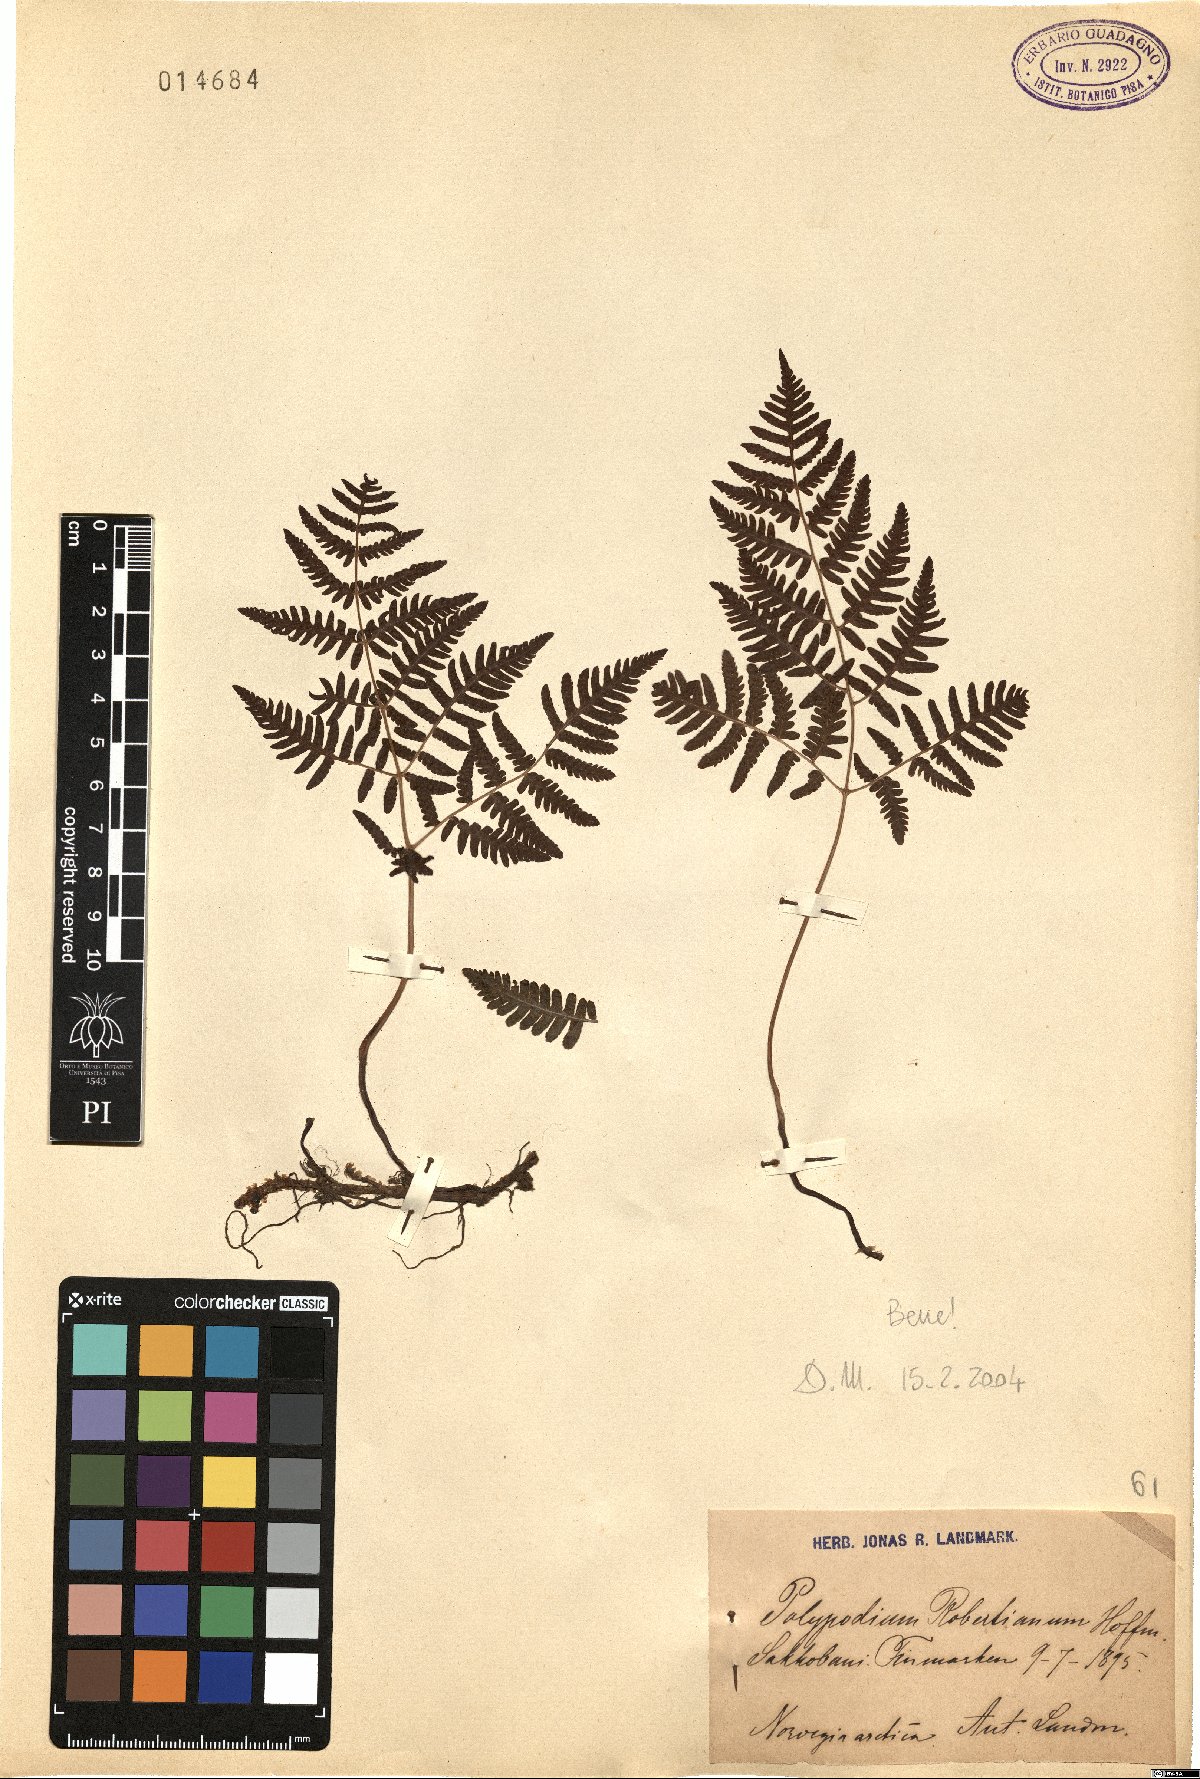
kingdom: Plantae
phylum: Tracheophyta
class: Polypodiopsida
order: Polypodiales
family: Cystopteridaceae
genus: Gymnocarpium
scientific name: Gymnocarpium robertianum
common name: Limestone fern
